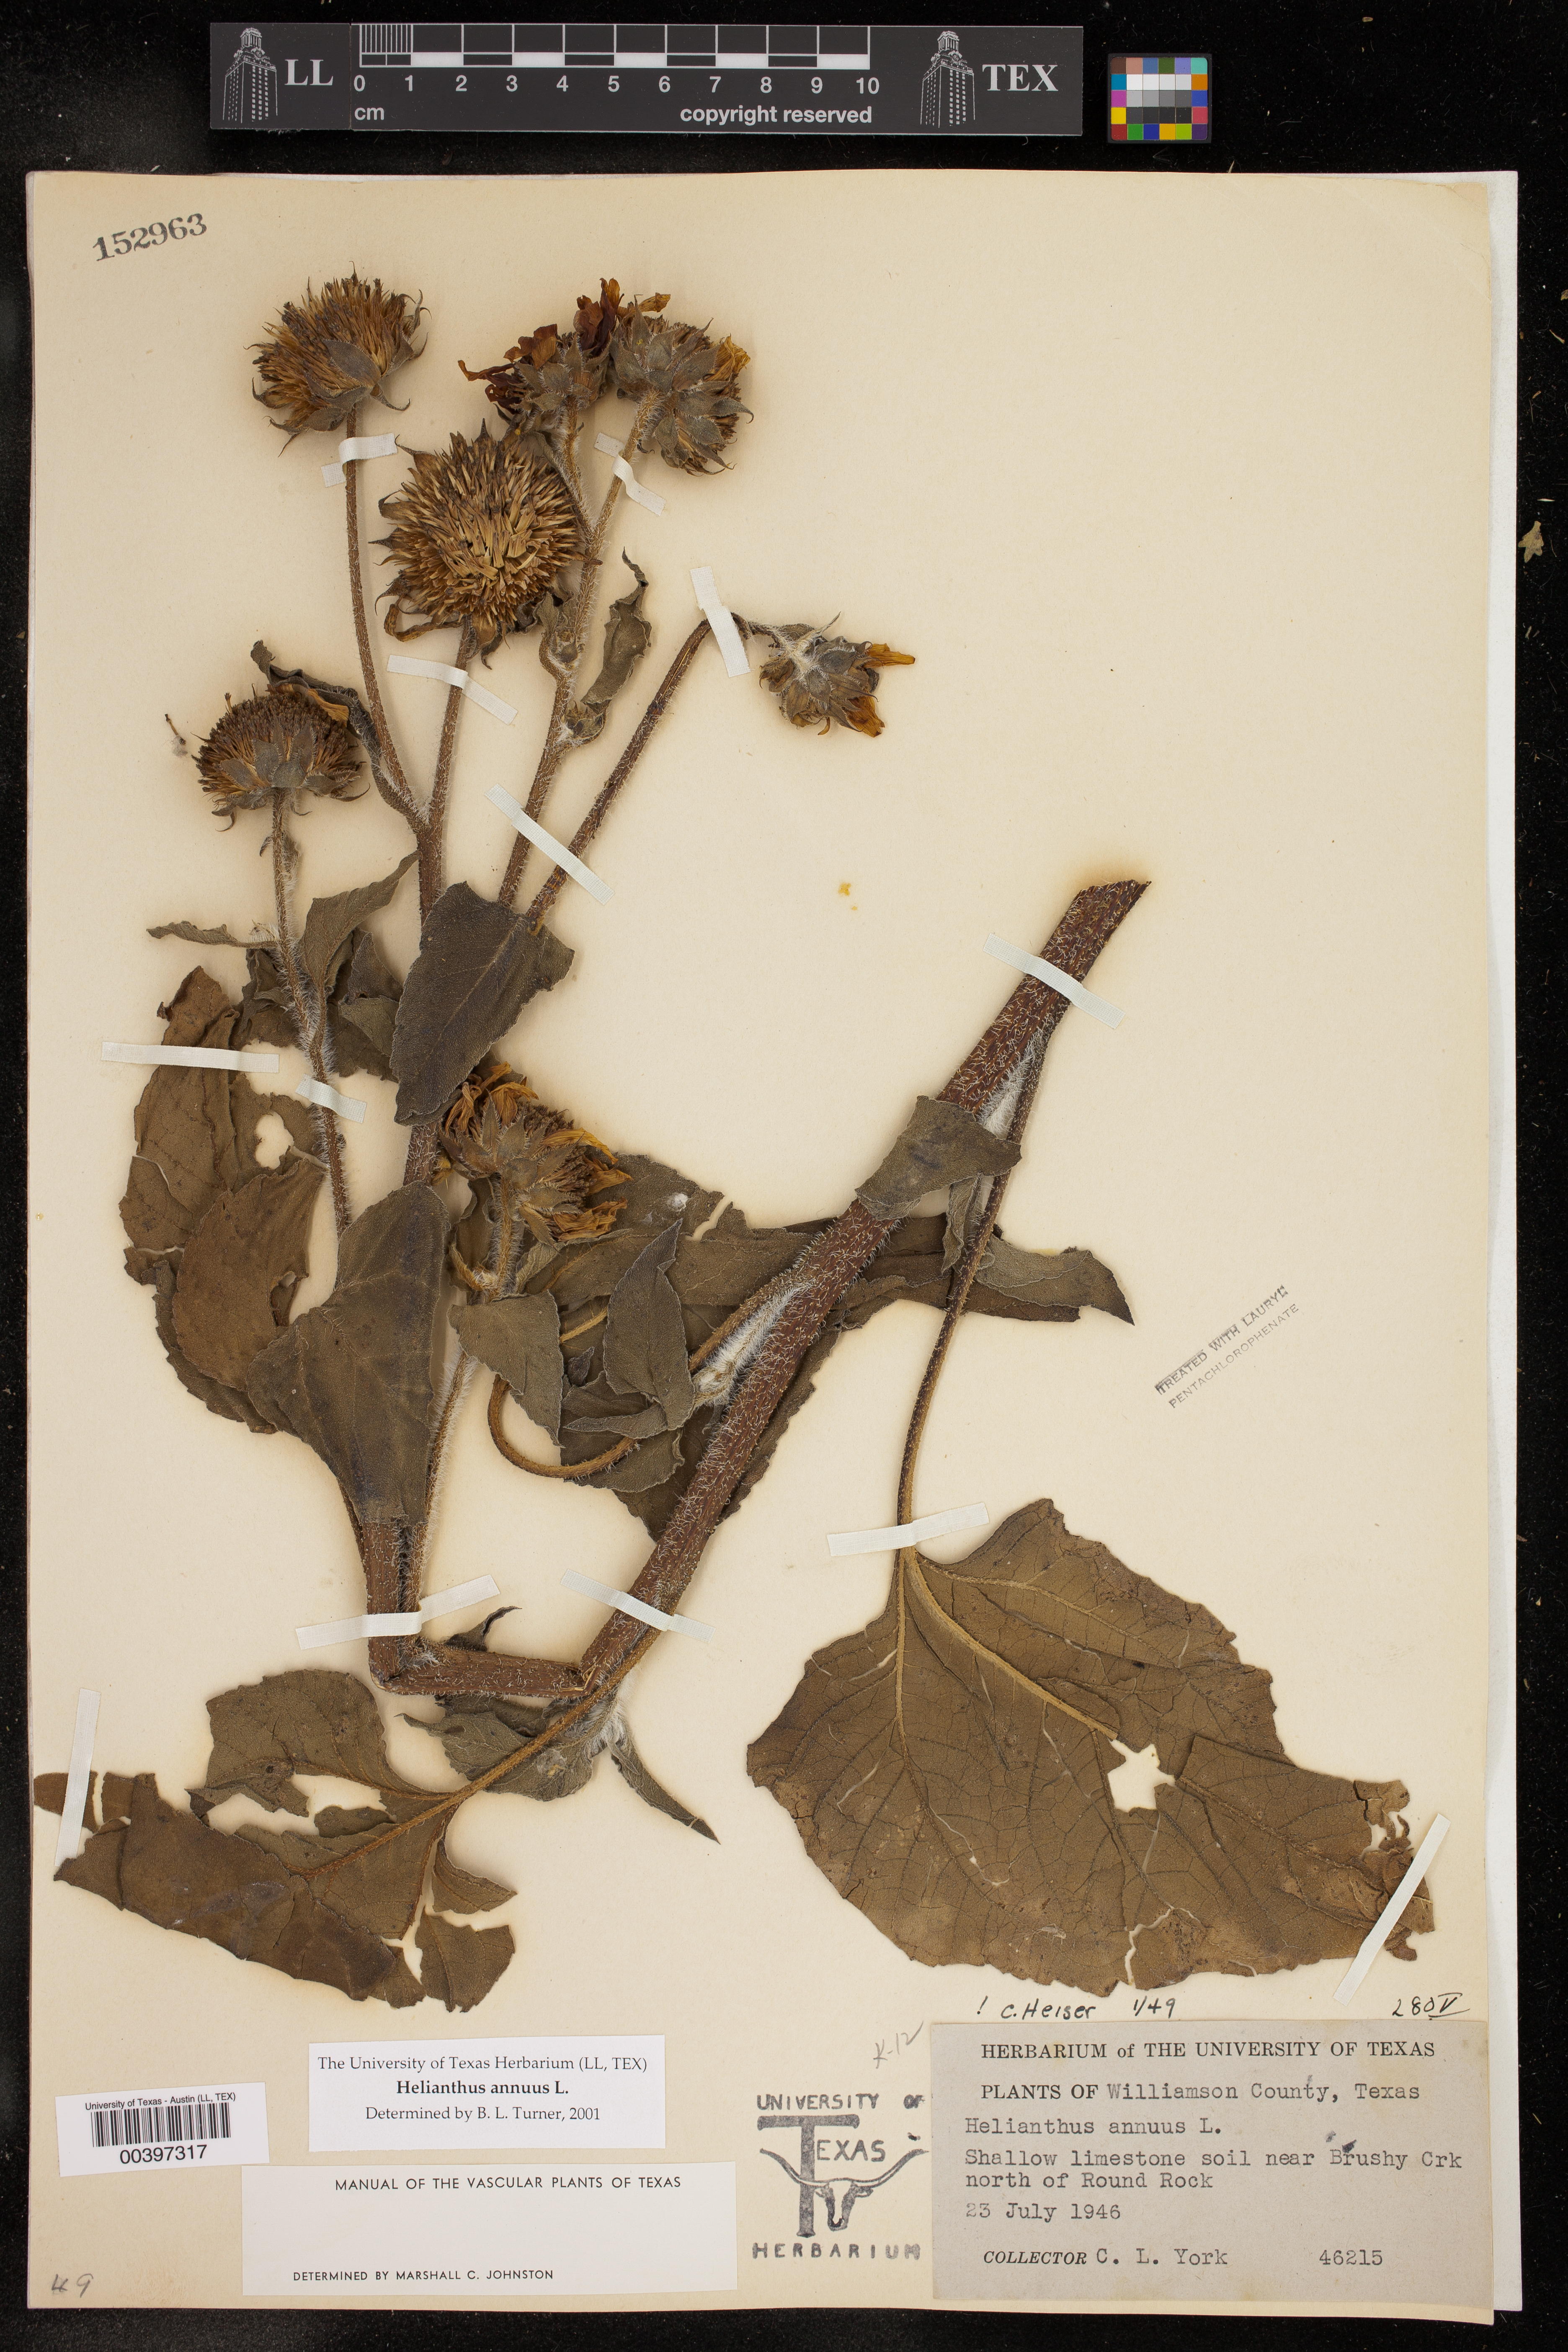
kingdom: Plantae
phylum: Tracheophyta
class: Magnoliopsida
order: Asterales
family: Asteraceae
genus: Helianthus
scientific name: Helianthus annuus
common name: Sunflower
